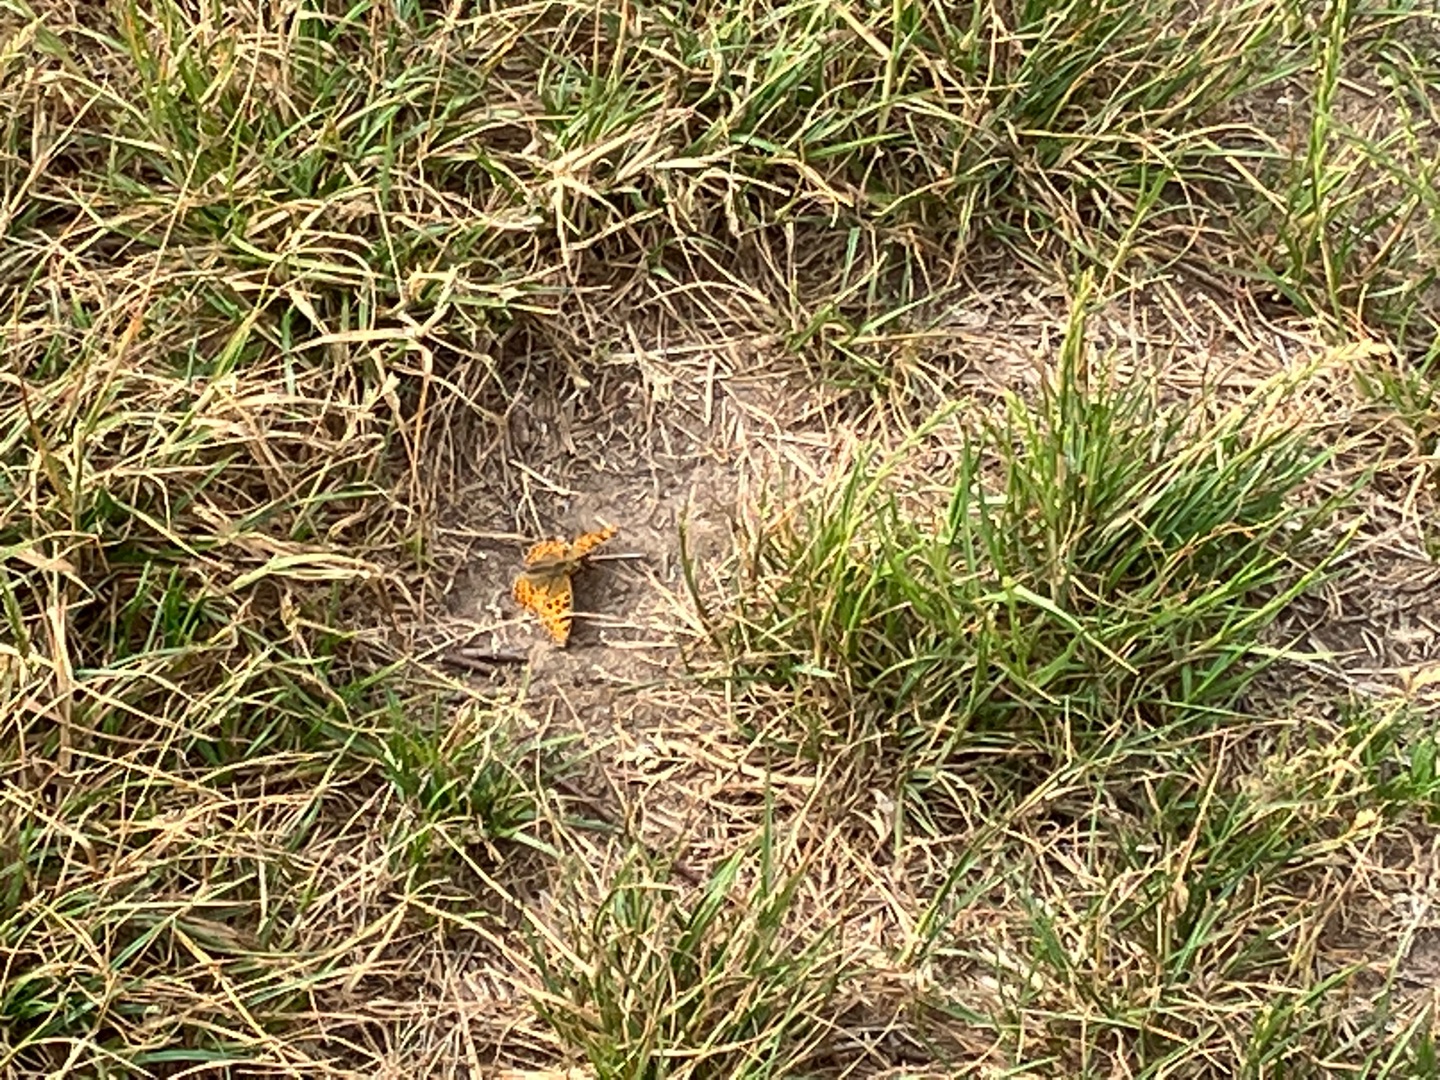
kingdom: Animalia
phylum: Arthropoda
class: Insecta
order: Lepidoptera
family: Nymphalidae
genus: Issoria
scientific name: Issoria lathonia
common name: Storplettet perlemorsommerfugl
